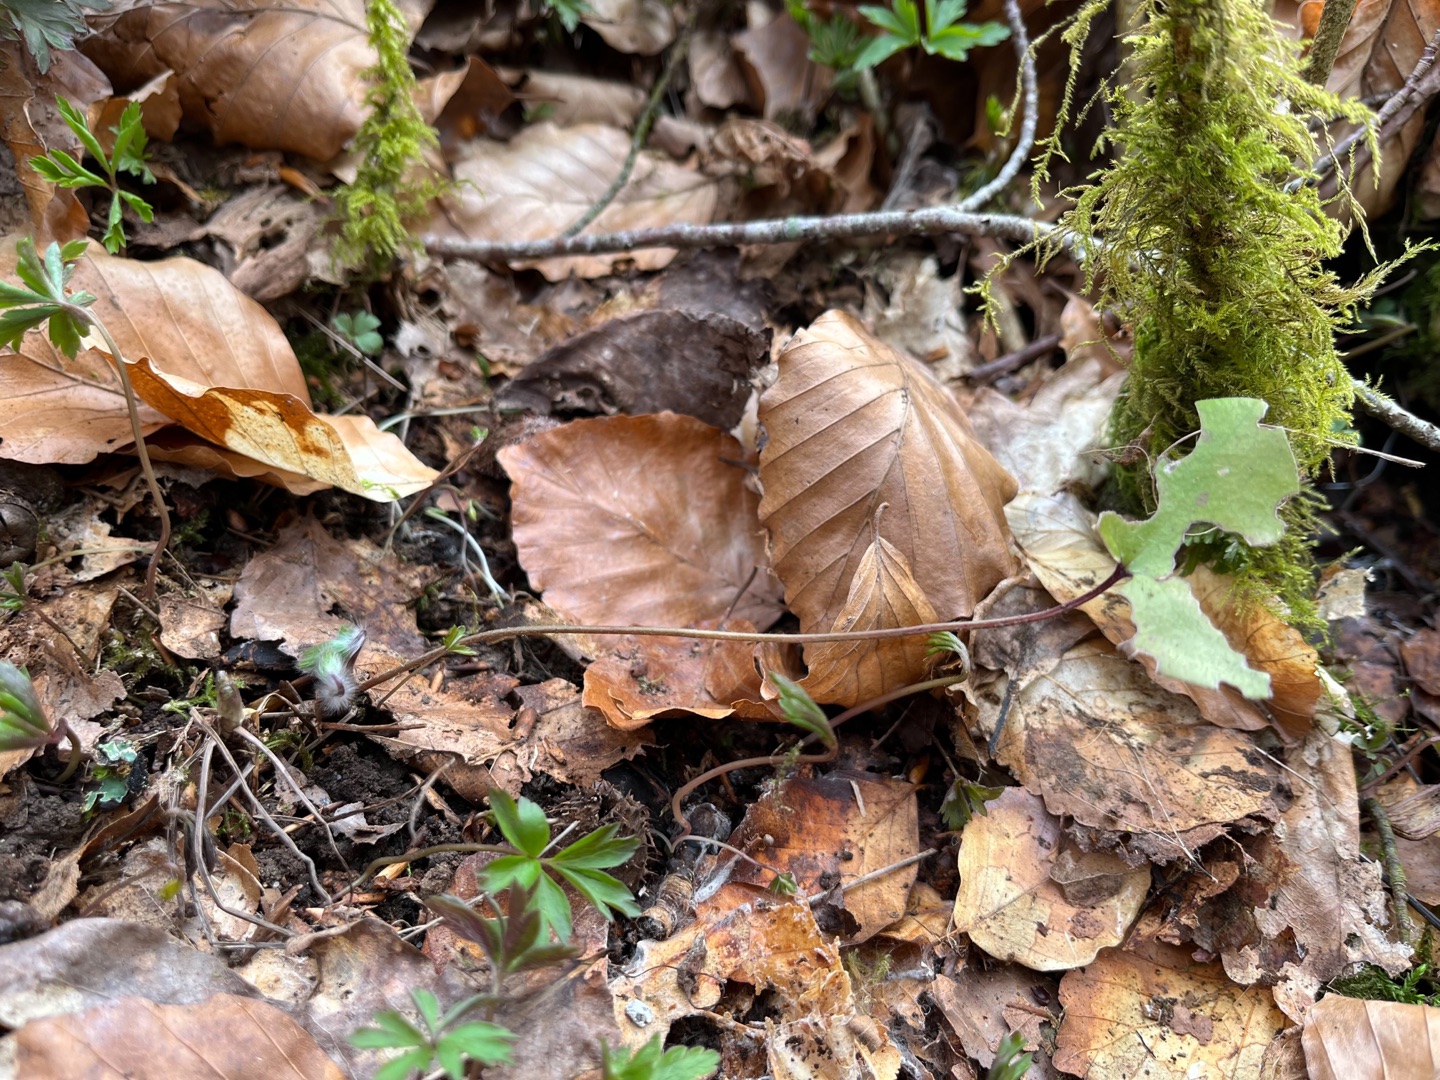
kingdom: Plantae
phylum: Tracheophyta
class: Magnoliopsida
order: Ranunculales
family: Ranunculaceae
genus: Hepatica
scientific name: Hepatica nobilis
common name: Blå anemone
